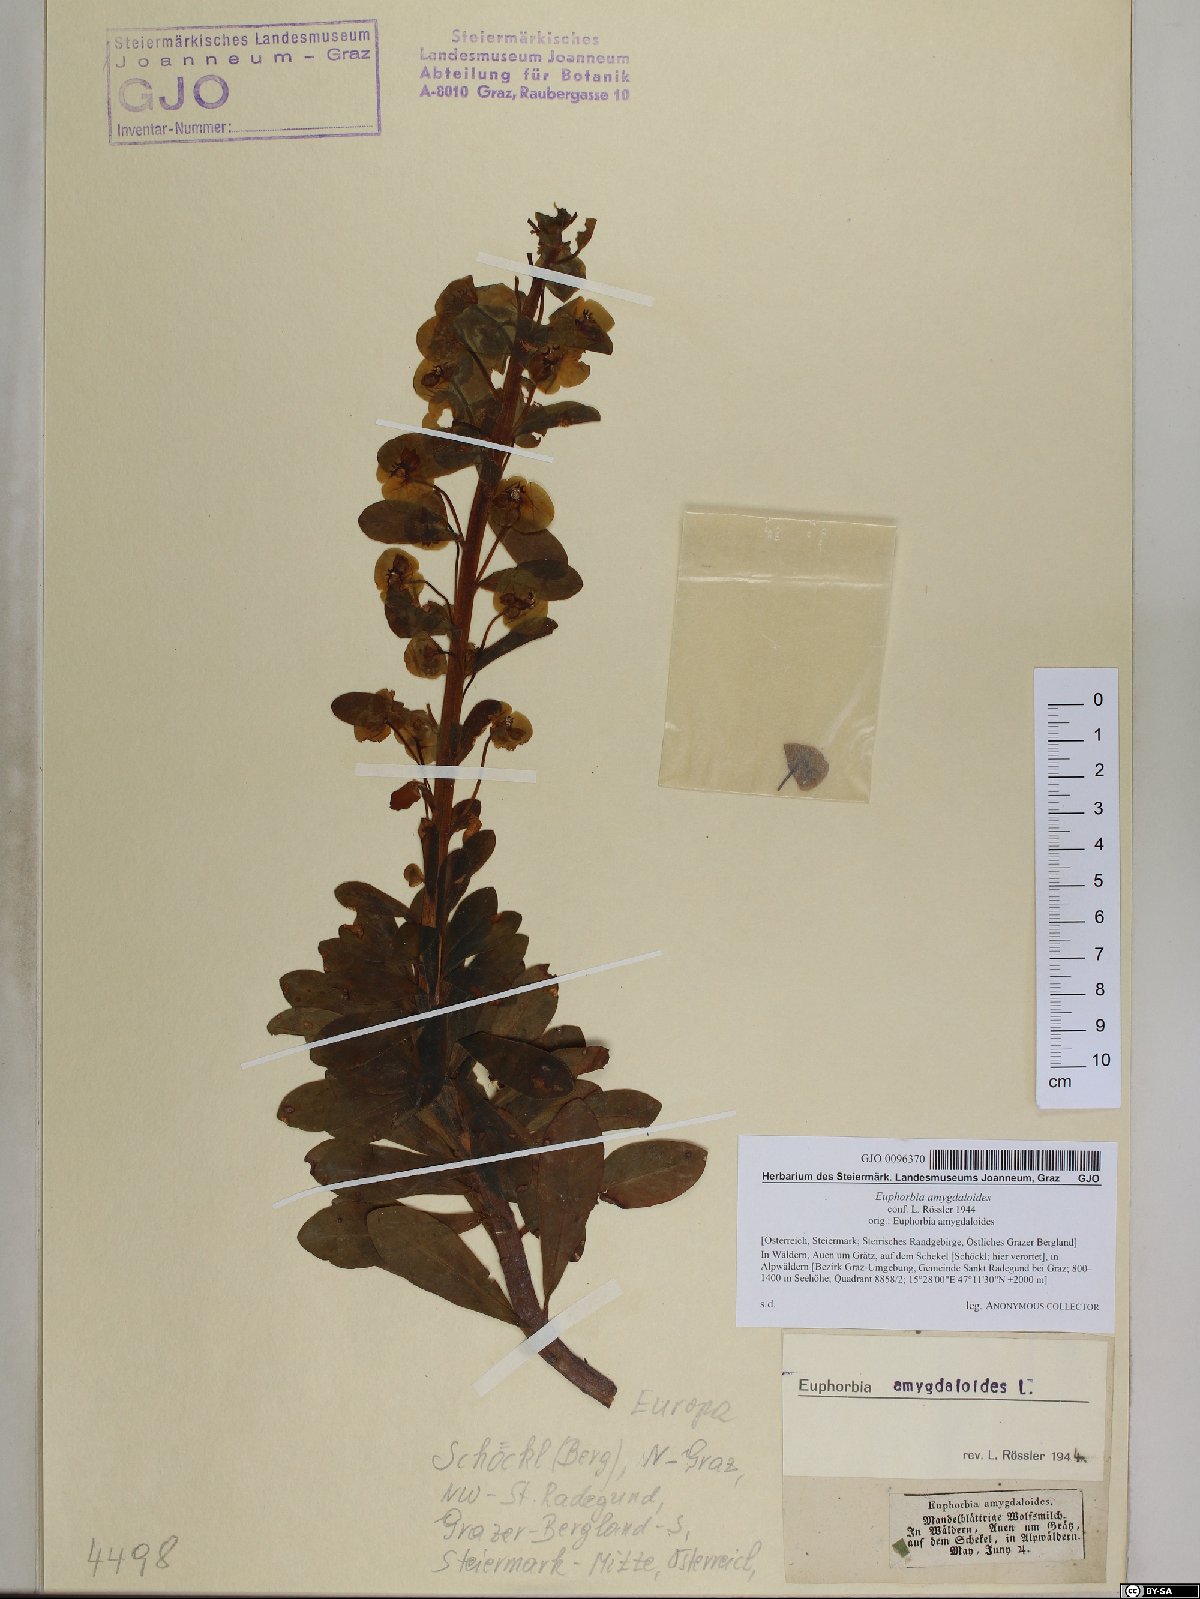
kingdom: Plantae
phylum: Tracheophyta
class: Magnoliopsida
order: Malpighiales
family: Euphorbiaceae
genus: Euphorbia
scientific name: Euphorbia amygdaloides
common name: Wood spurge
